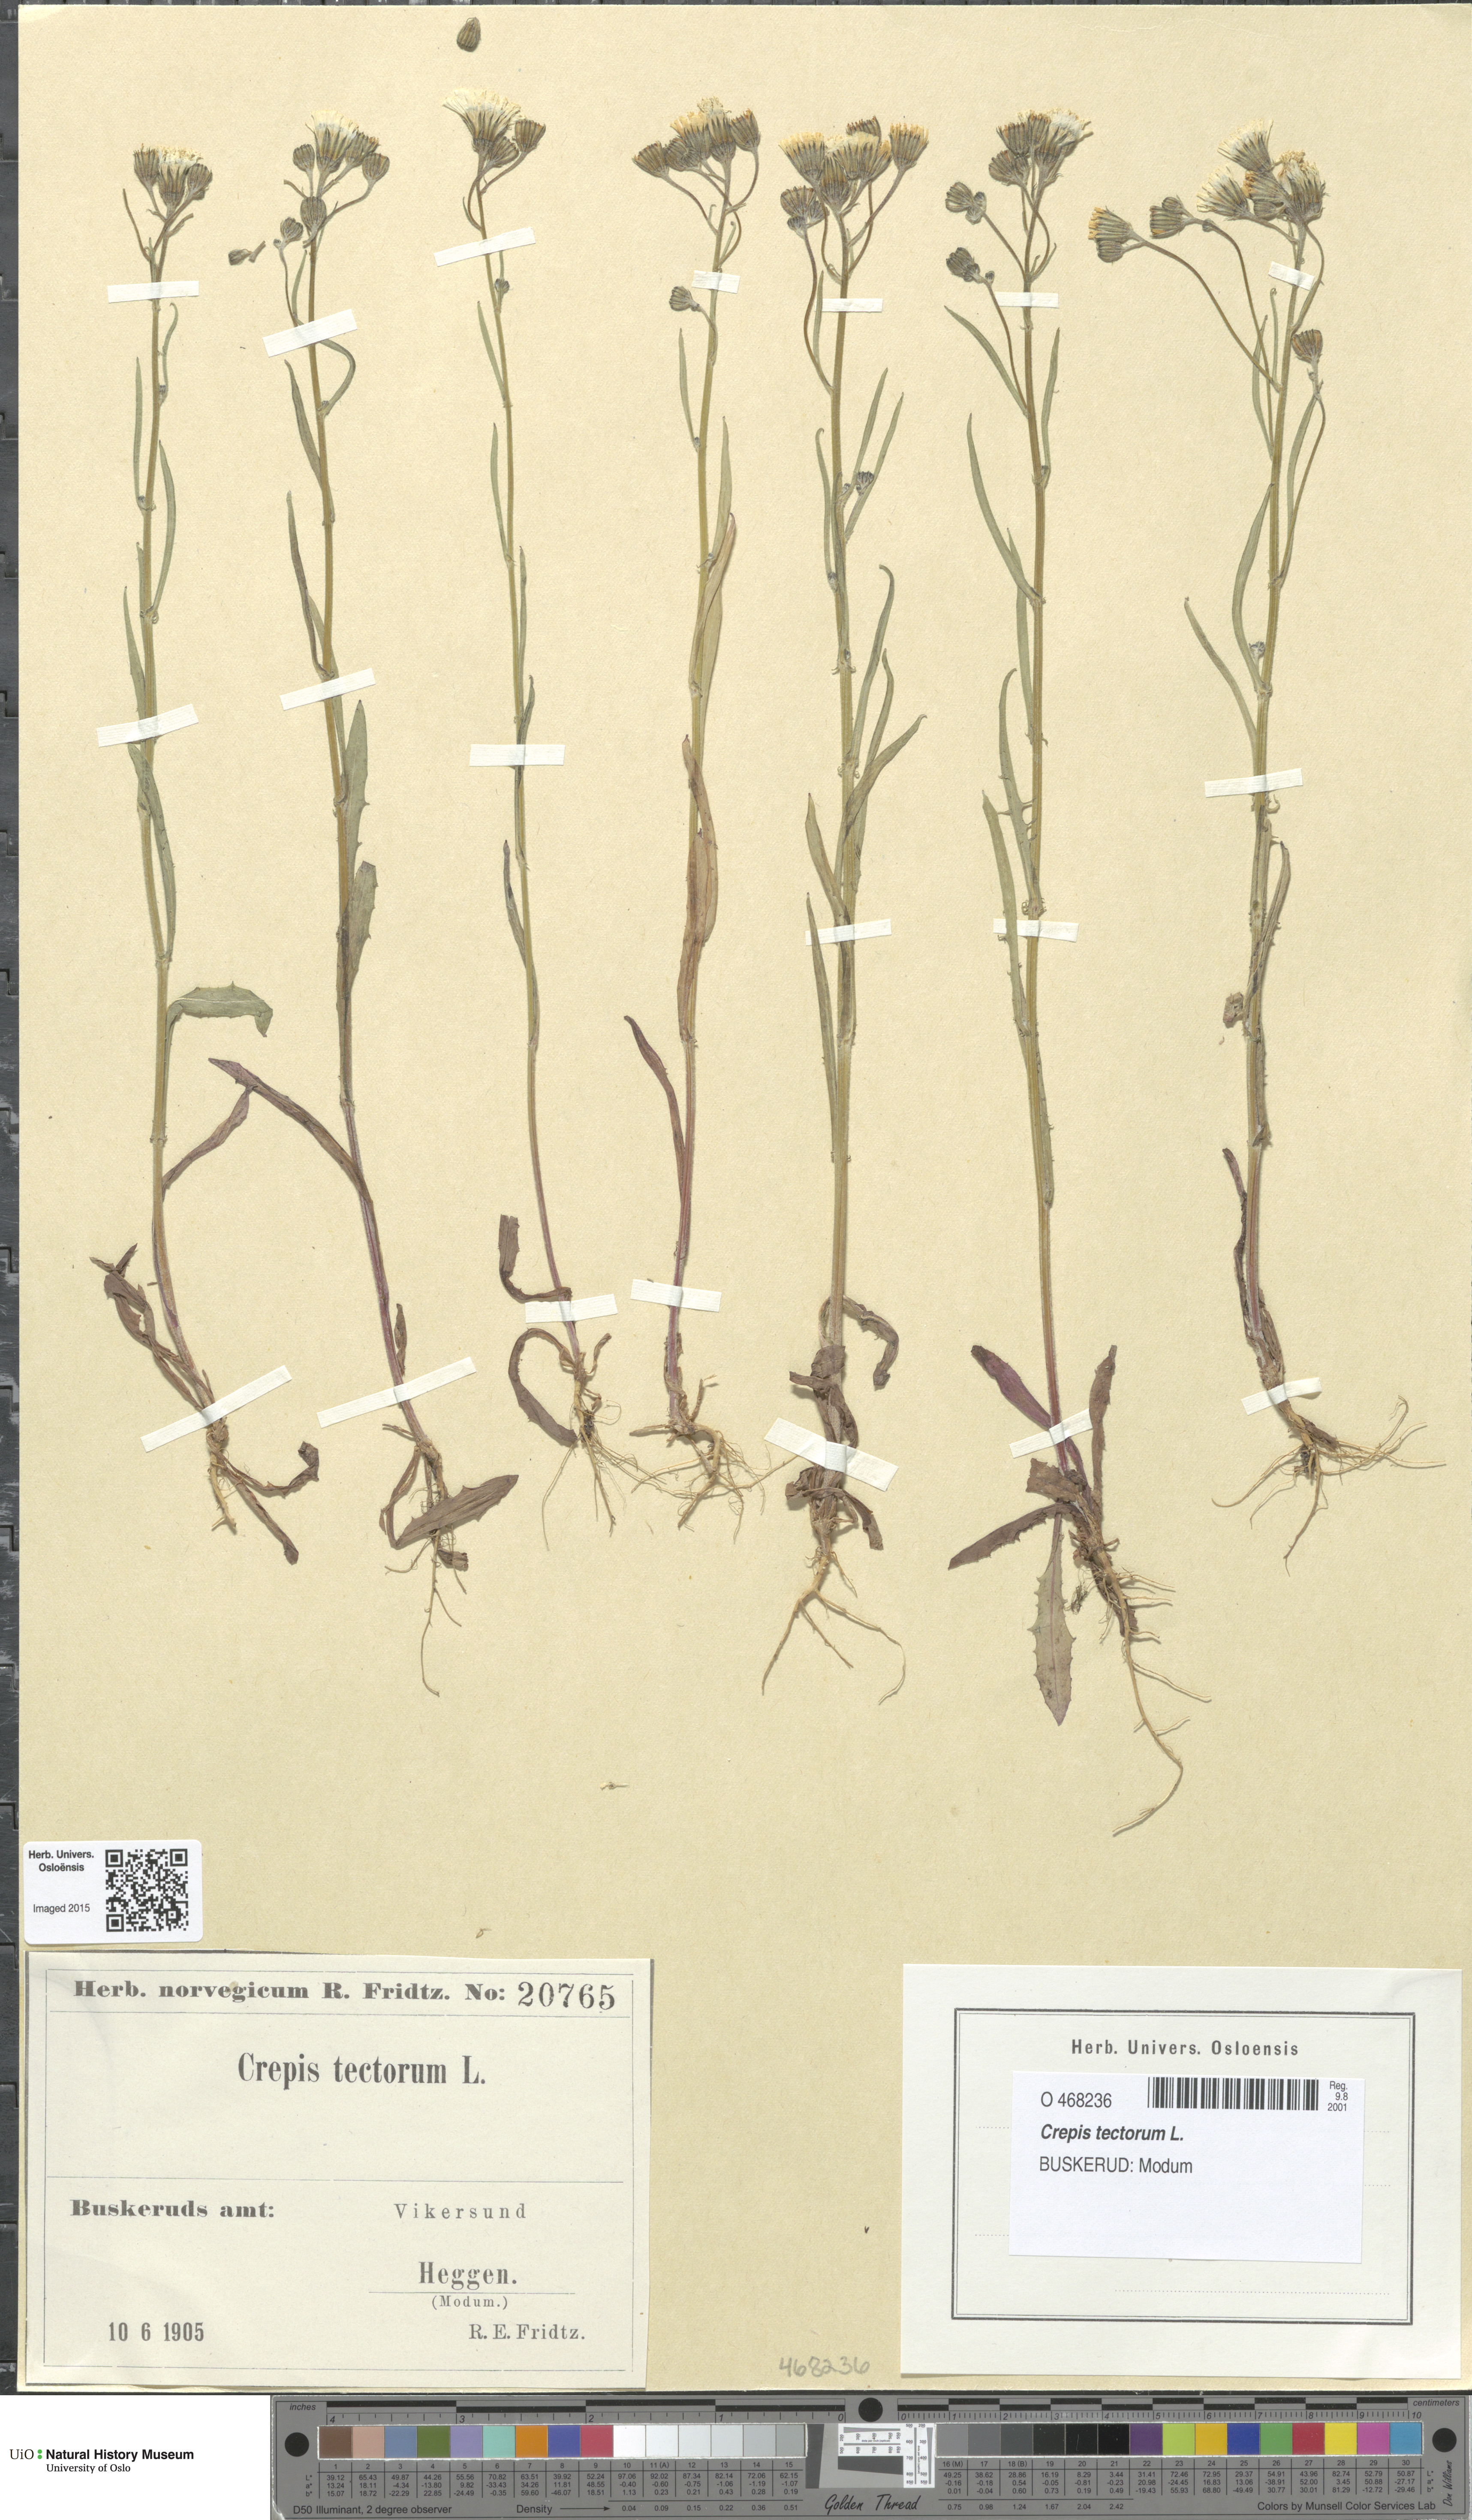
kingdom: Plantae
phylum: Tracheophyta
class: Magnoliopsida
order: Asterales
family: Asteraceae
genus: Crepis
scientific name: Crepis tectorum
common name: Narrow-leaved hawk's-beard
